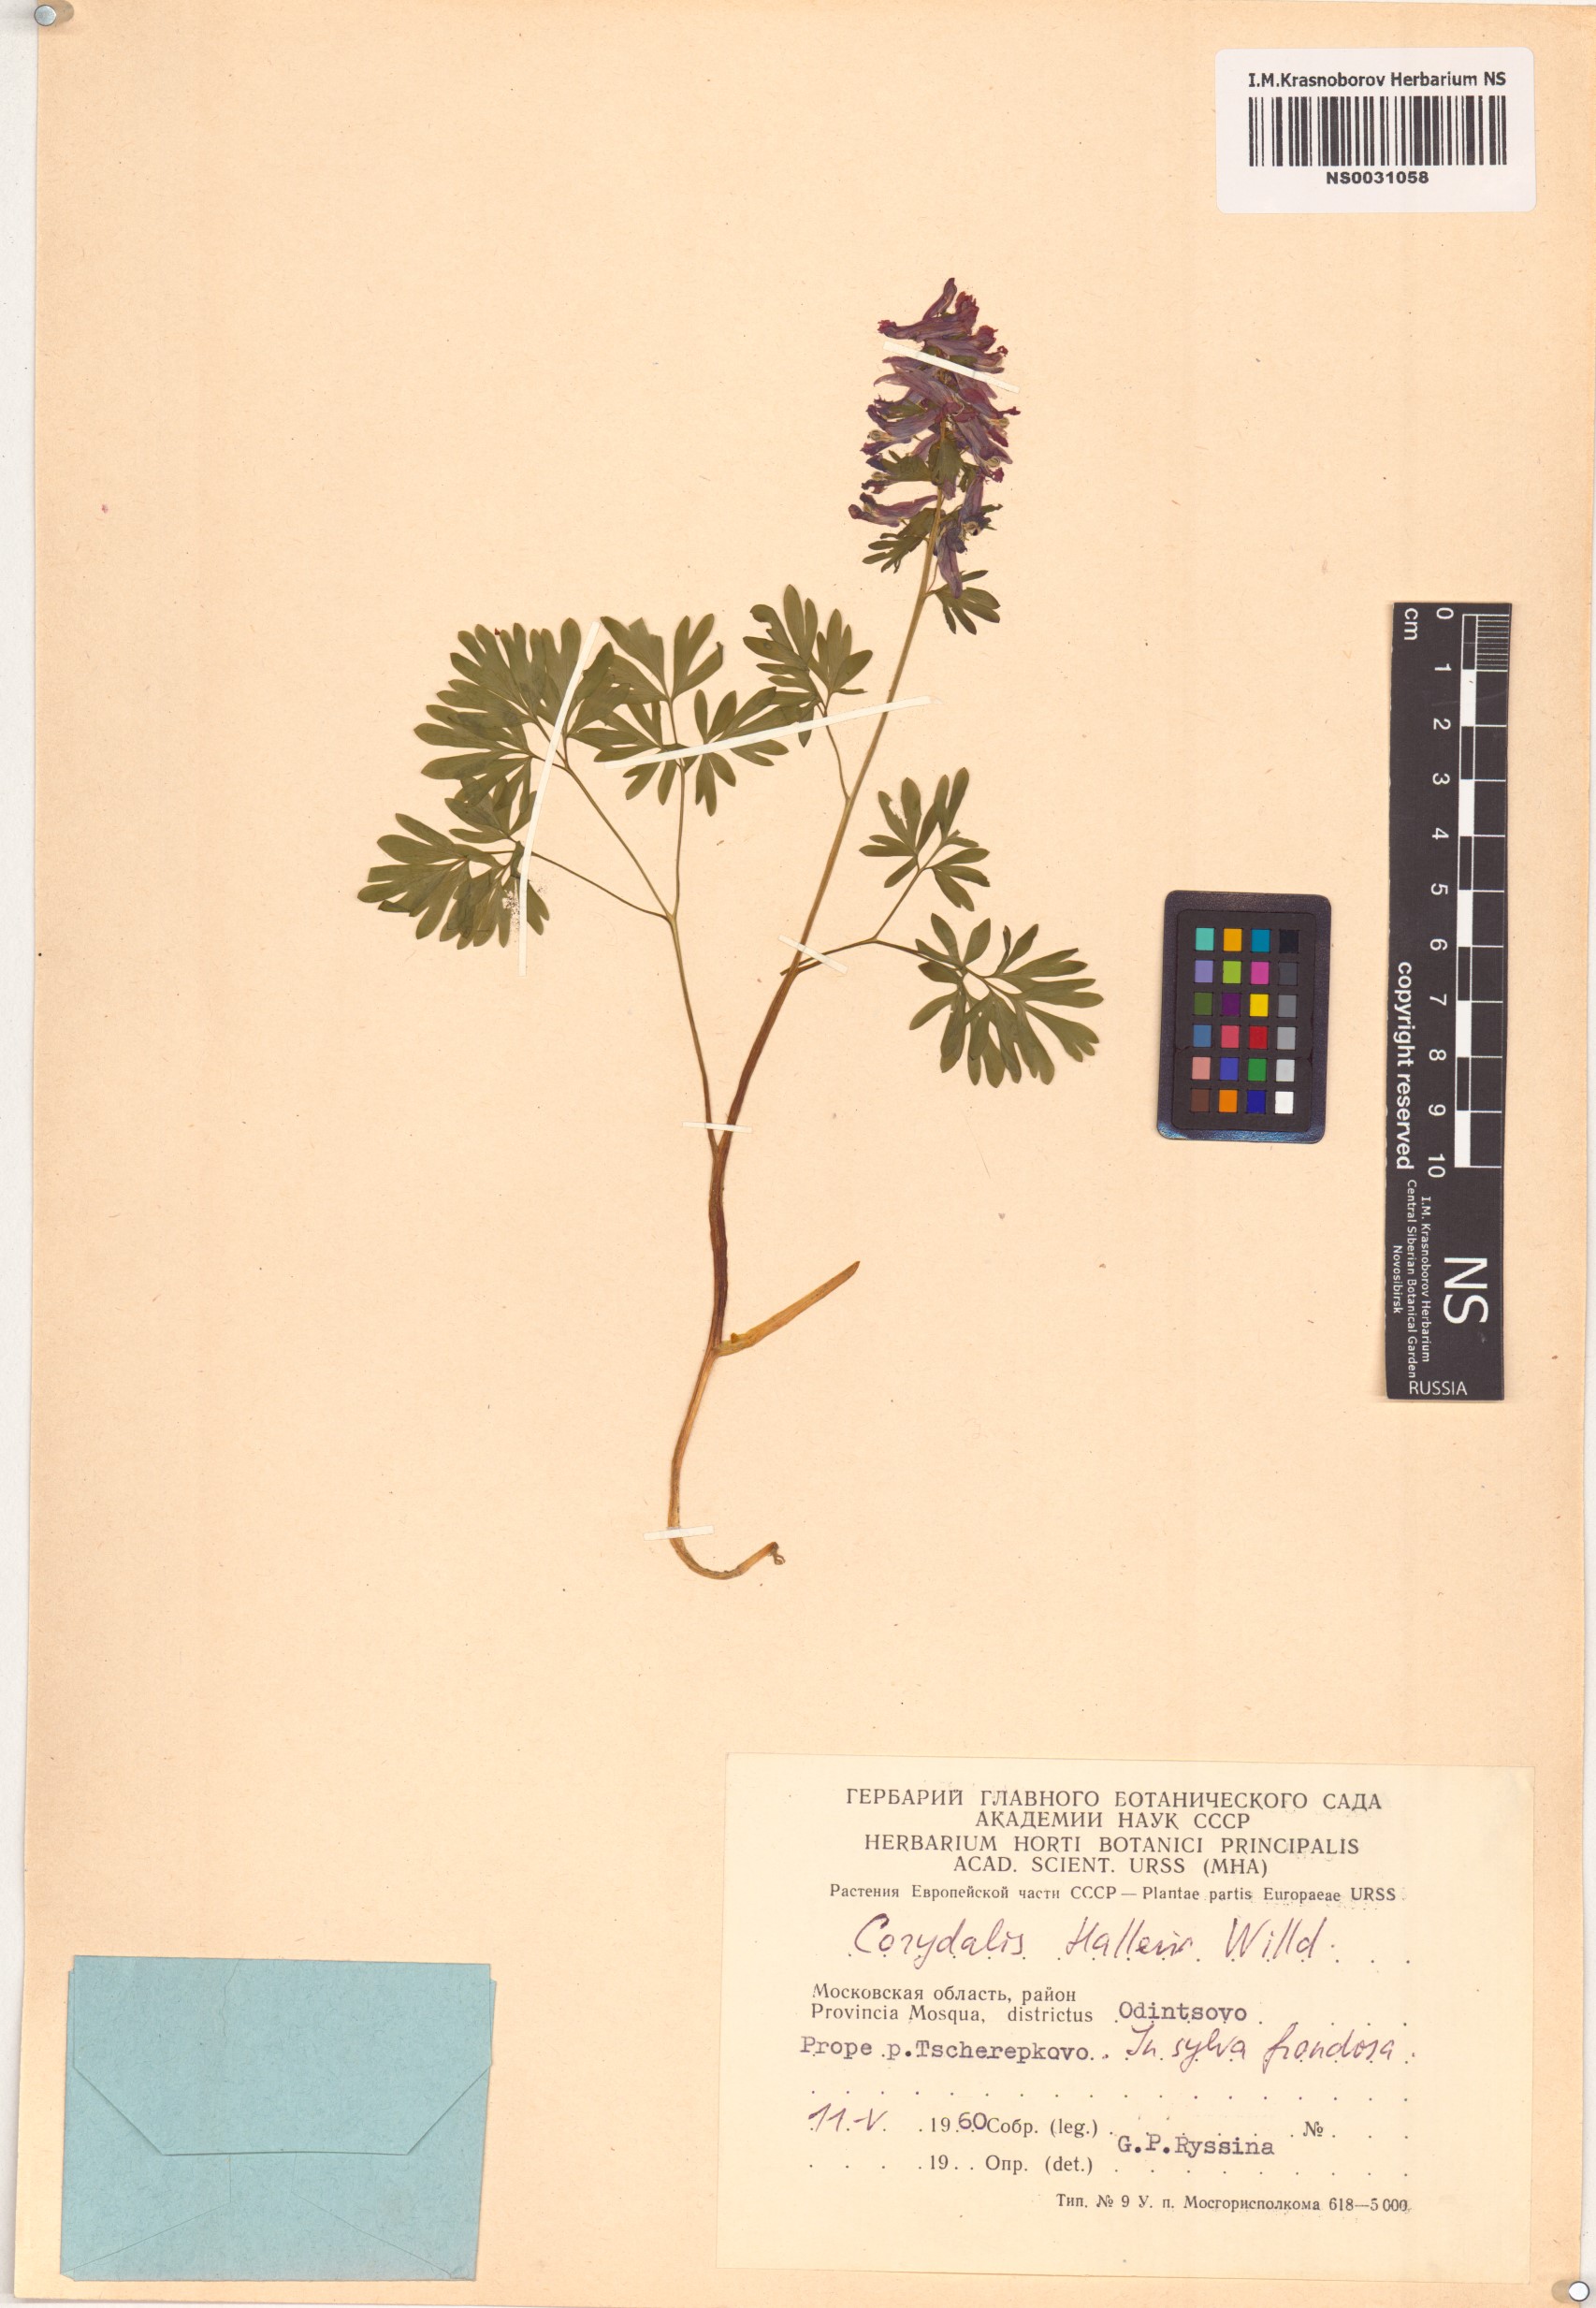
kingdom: Plantae
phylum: Tracheophyta
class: Magnoliopsida
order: Ranunculales
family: Papaveraceae
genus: Corydalis
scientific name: Corydalis solida
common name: Bird-in-a-bush
